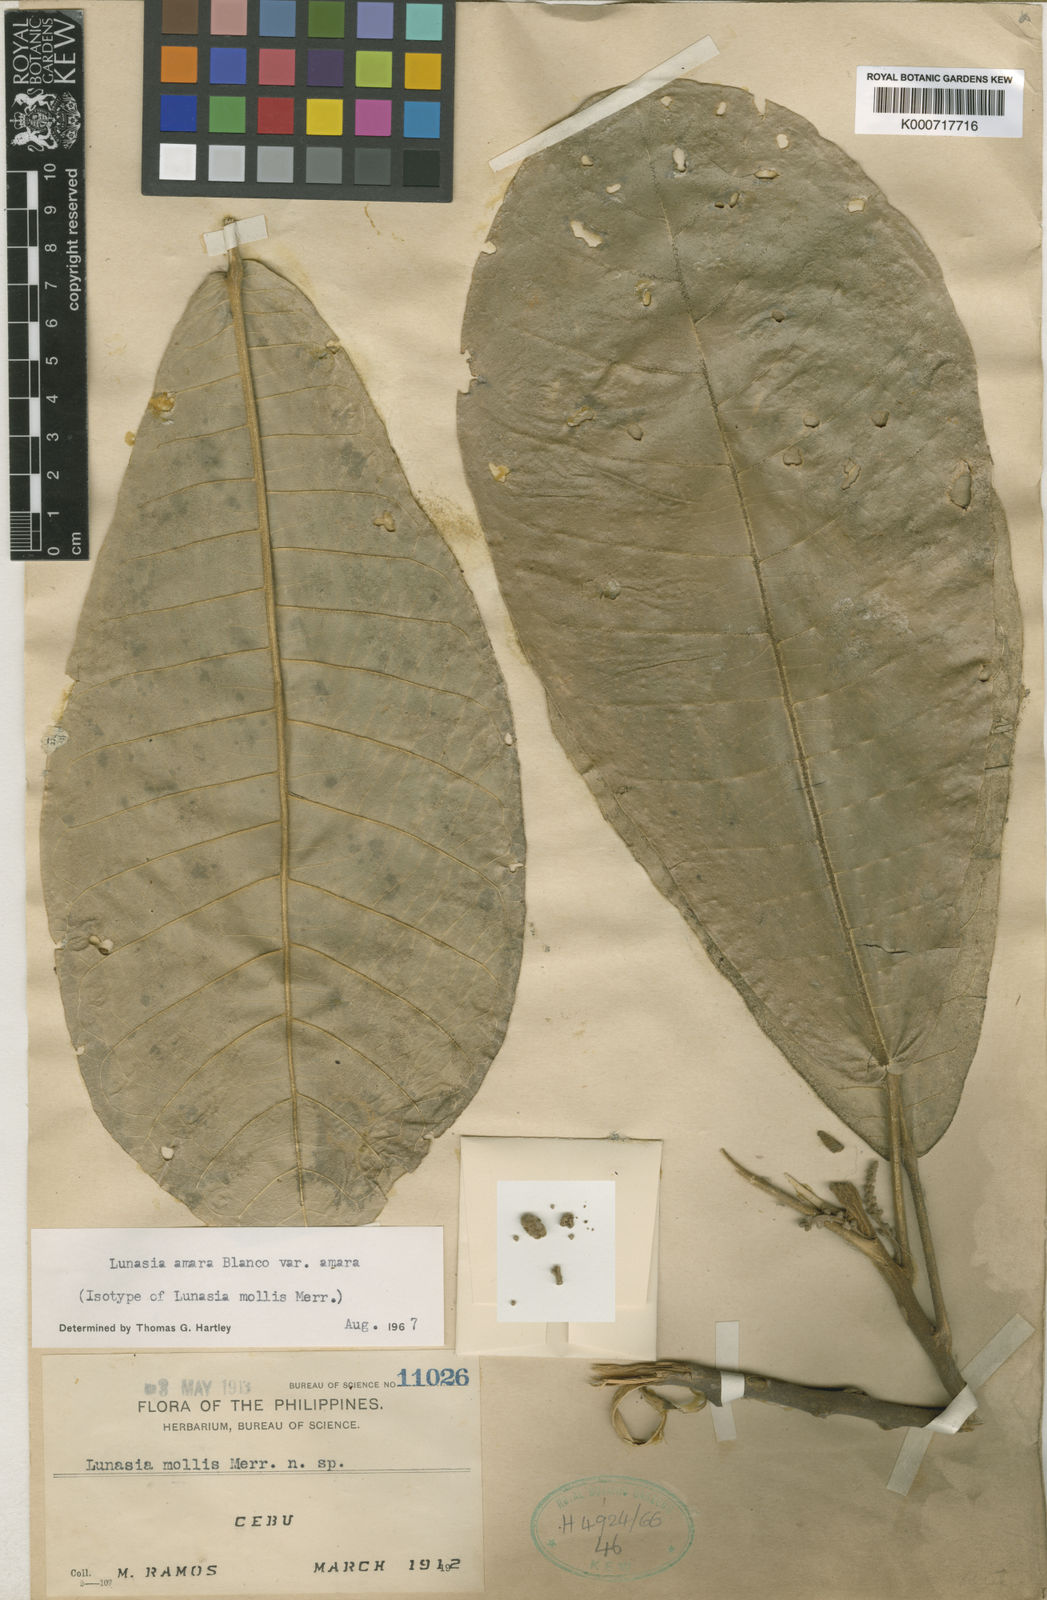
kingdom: Plantae
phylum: Tracheophyta
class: Magnoliopsida
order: Sapindales
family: Rutaceae
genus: Lunasia
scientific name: Lunasia amara
